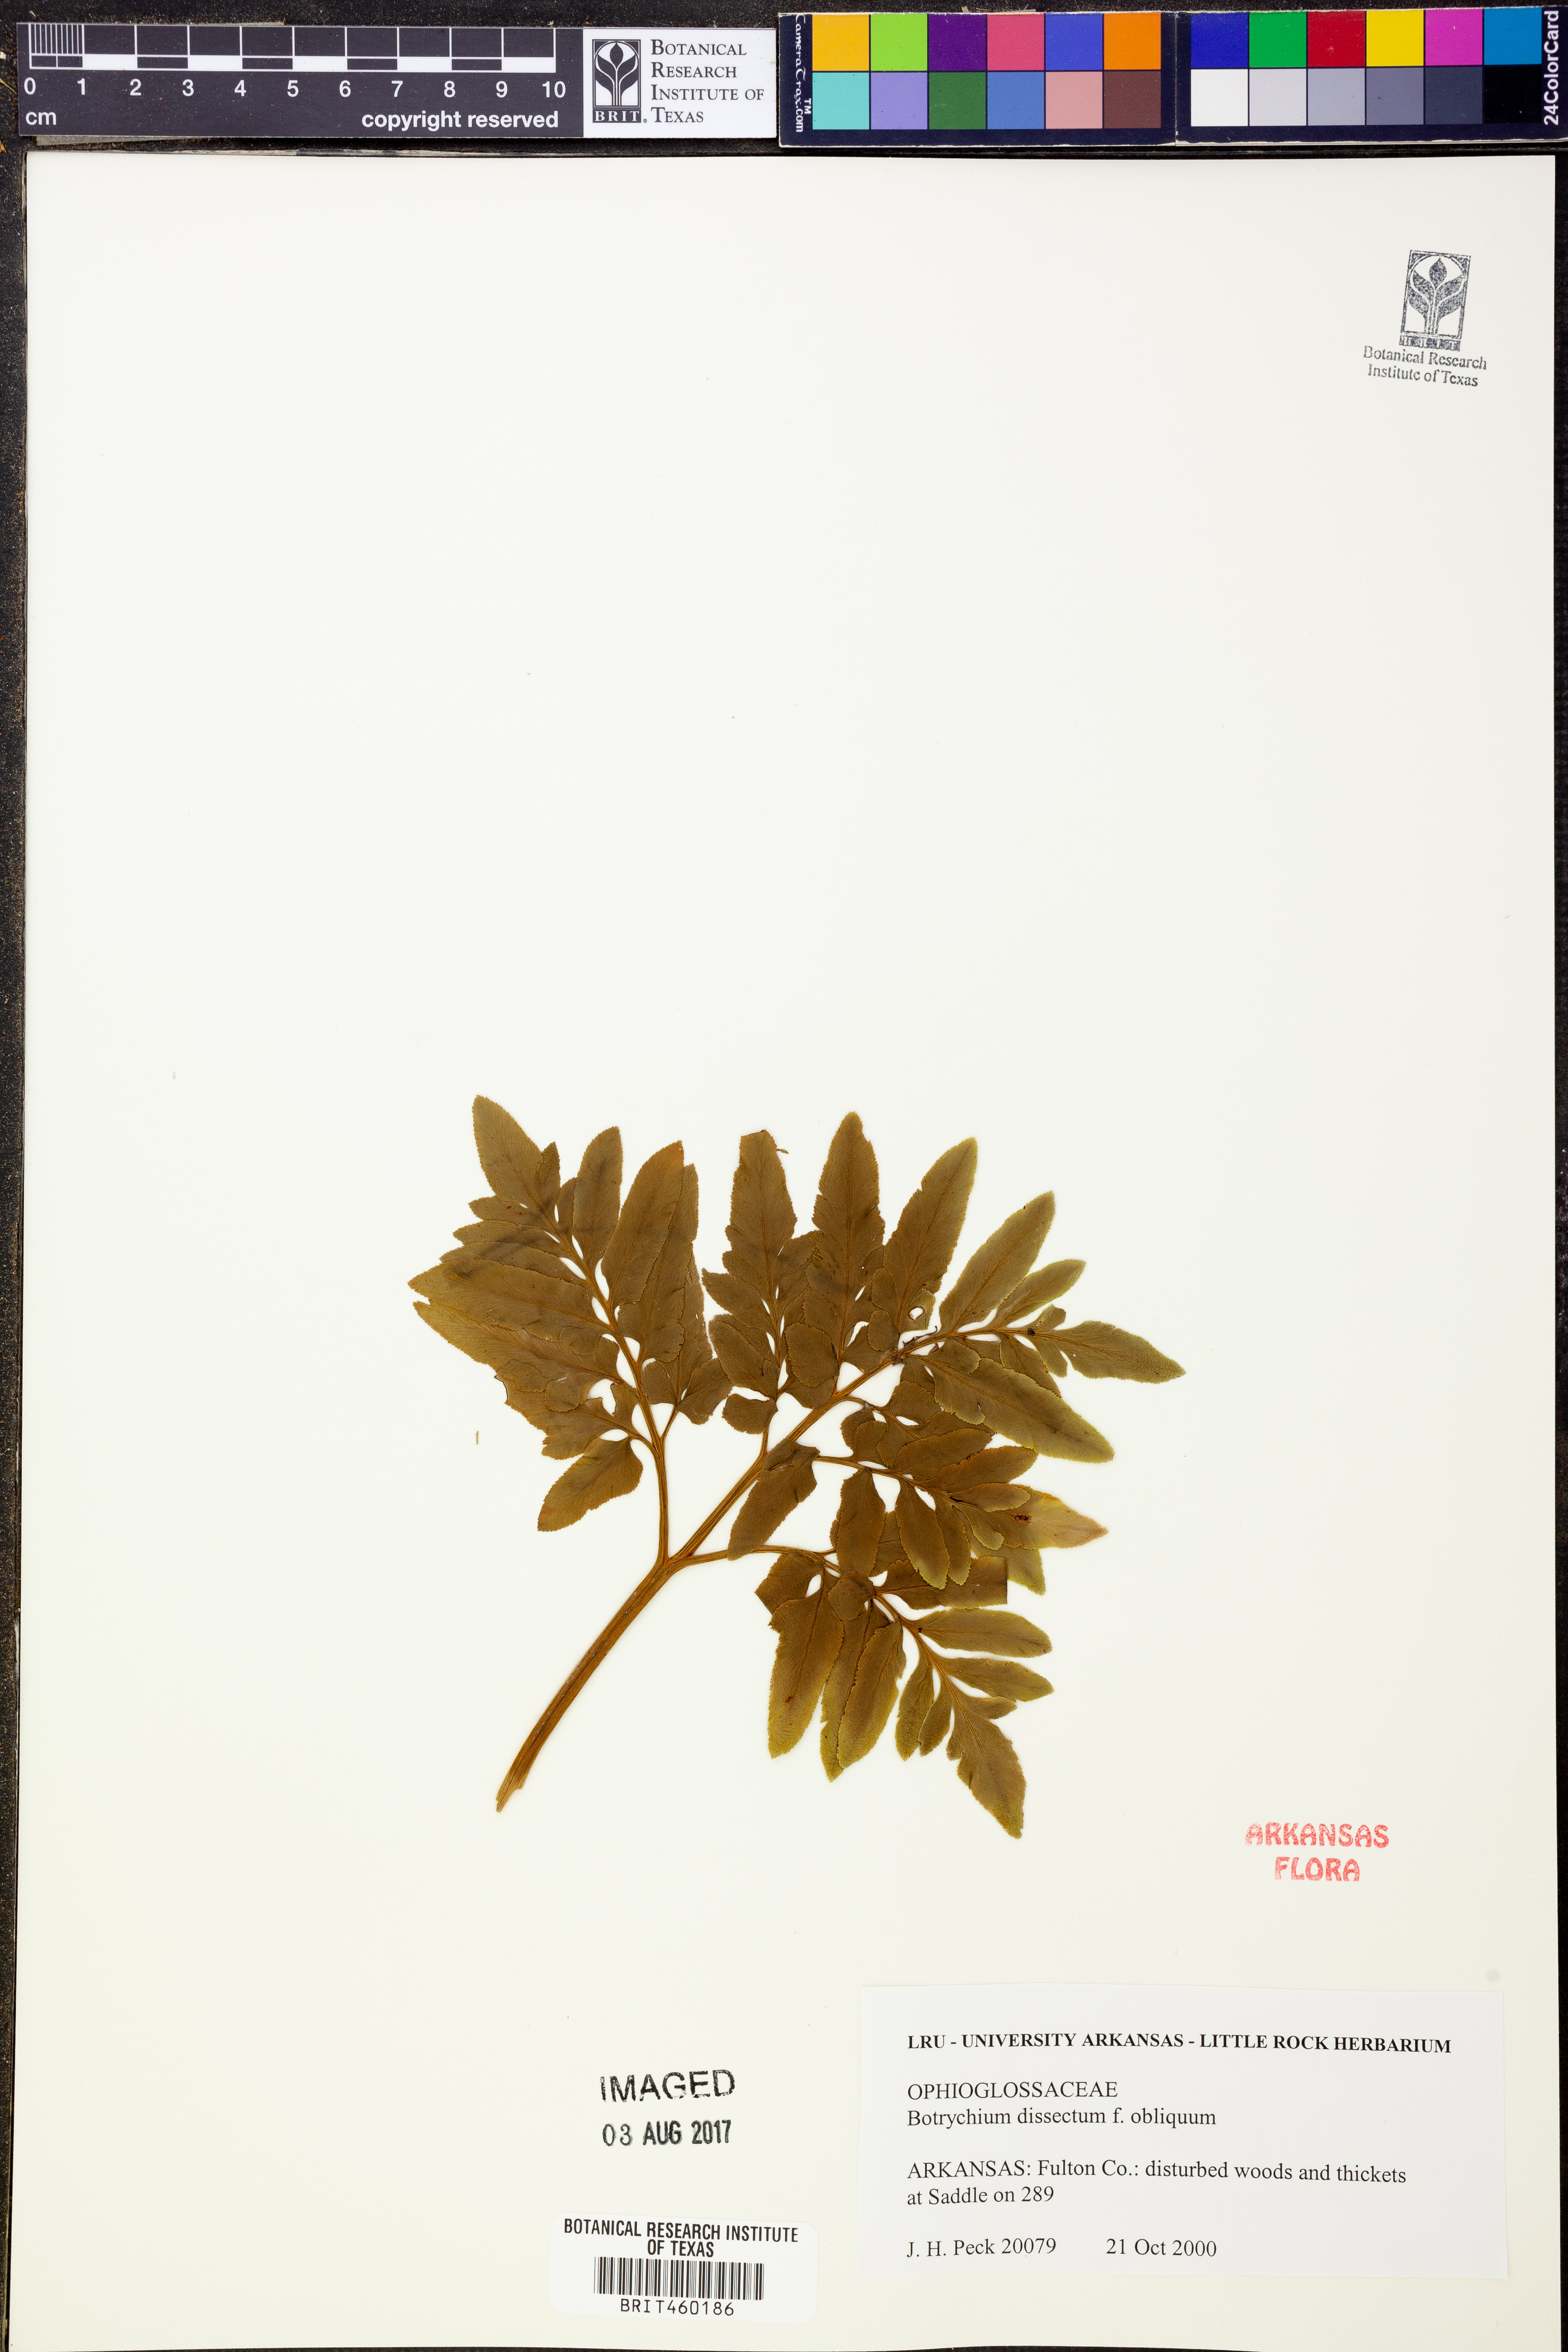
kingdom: Plantae
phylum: Tracheophyta
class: Polypodiopsida
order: Ophioglossales
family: Ophioglossaceae
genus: Sceptridium
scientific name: Sceptridium dissectum
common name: Cut-leaved grapefern
